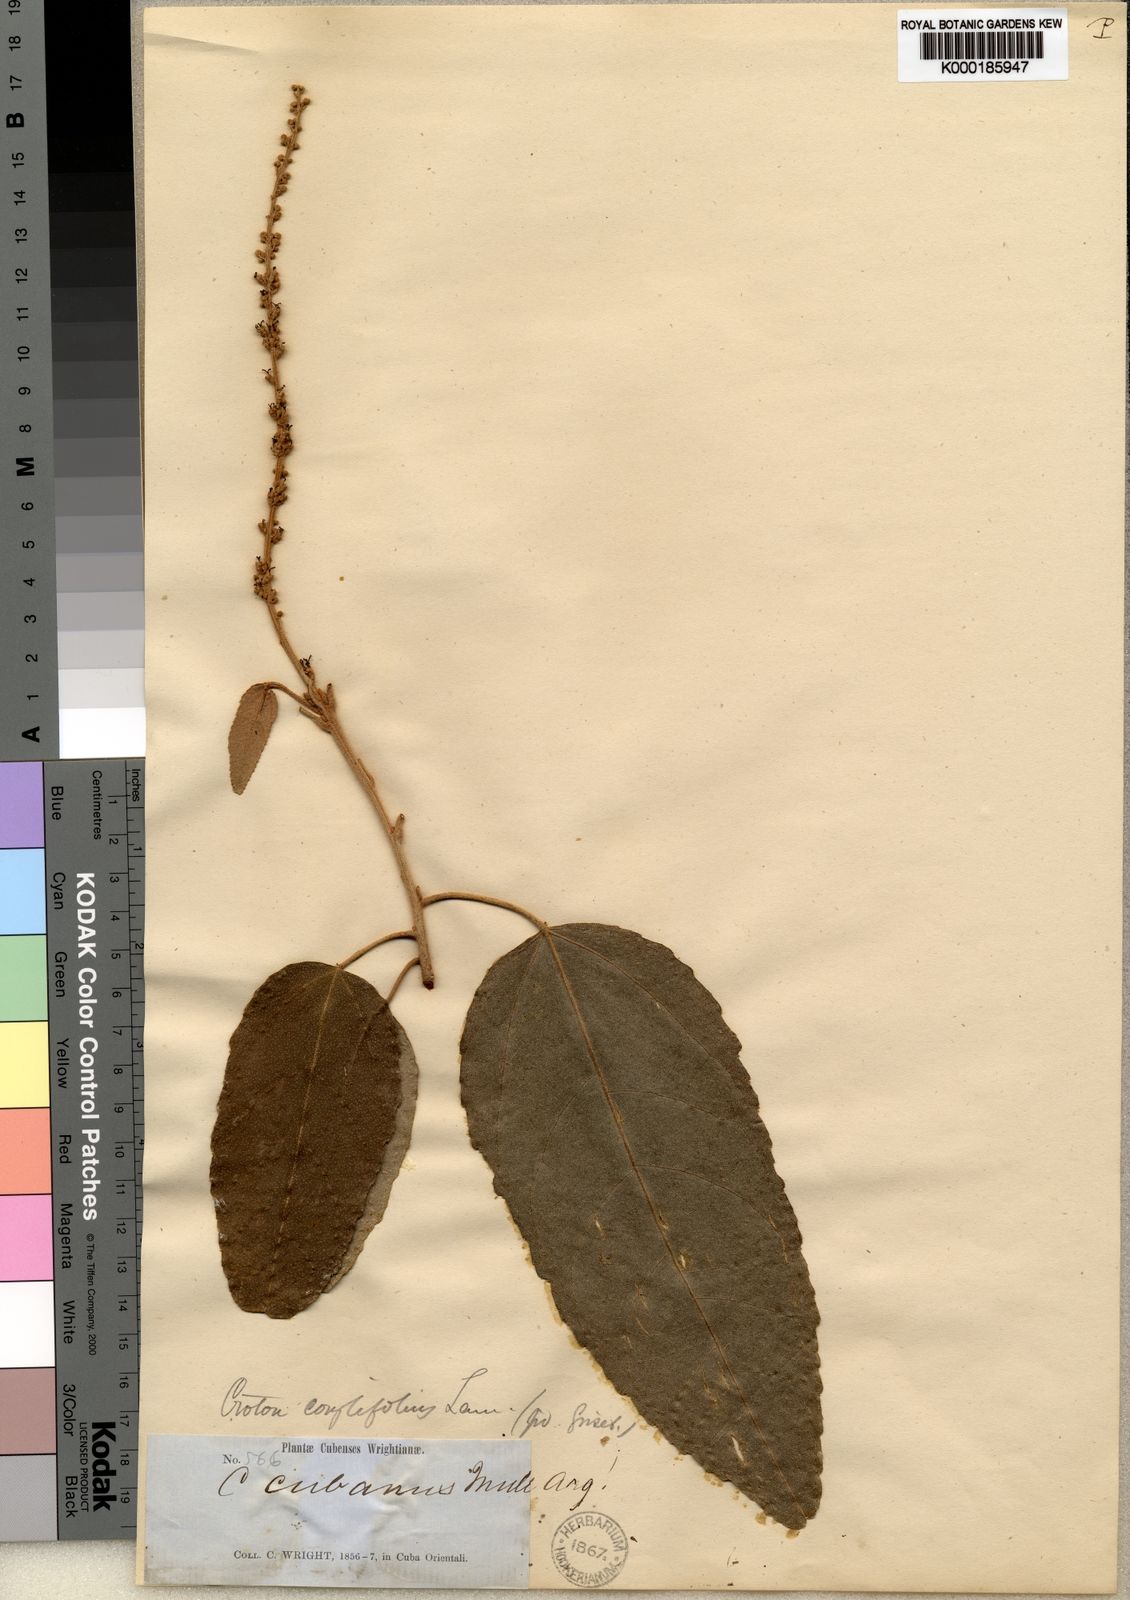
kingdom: Plantae
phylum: Tracheophyta
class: Magnoliopsida
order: Malpighiales
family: Euphorbiaceae
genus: Croton
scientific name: Croton corylifolius
